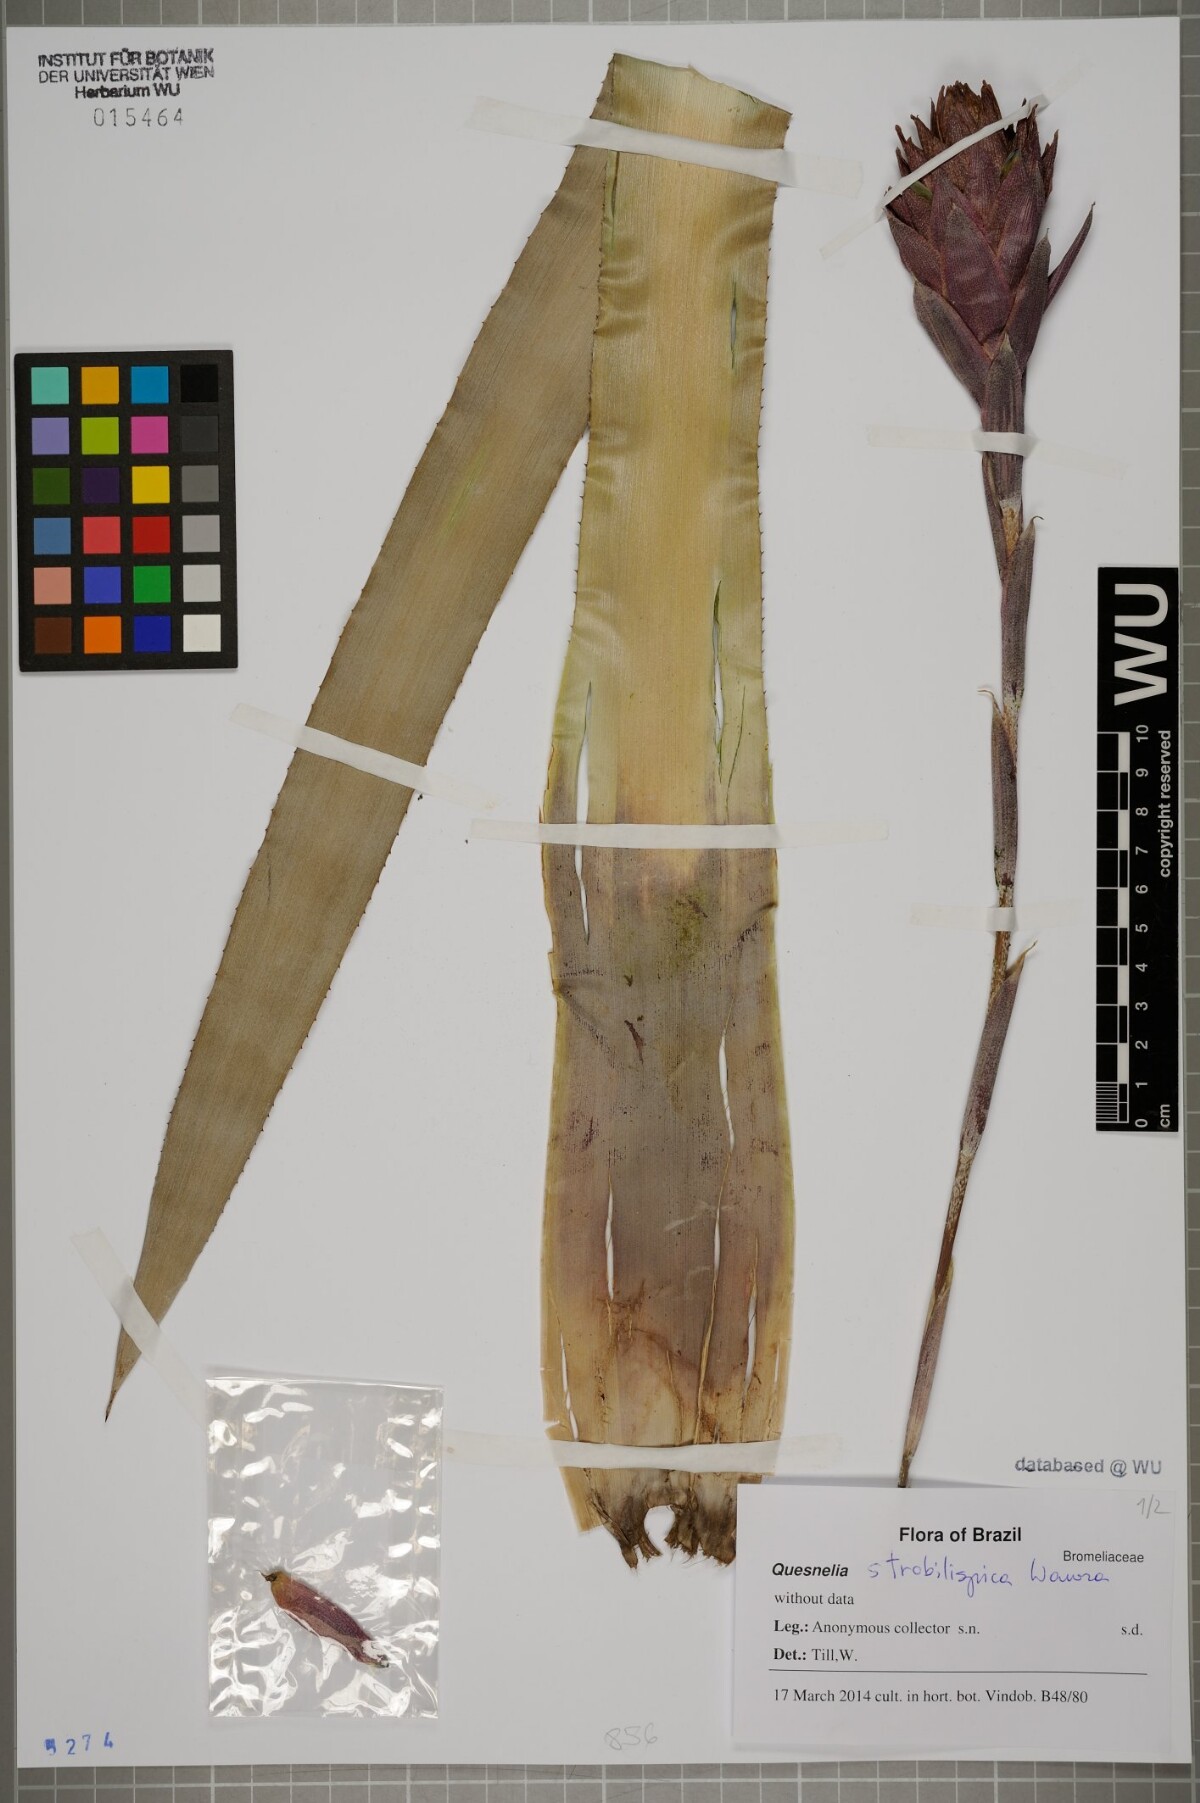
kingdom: Plantae
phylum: Tracheophyta
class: Liliopsida
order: Poales
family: Bromeliaceae
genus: Quesnelia
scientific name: Quesnelia strobilispica
